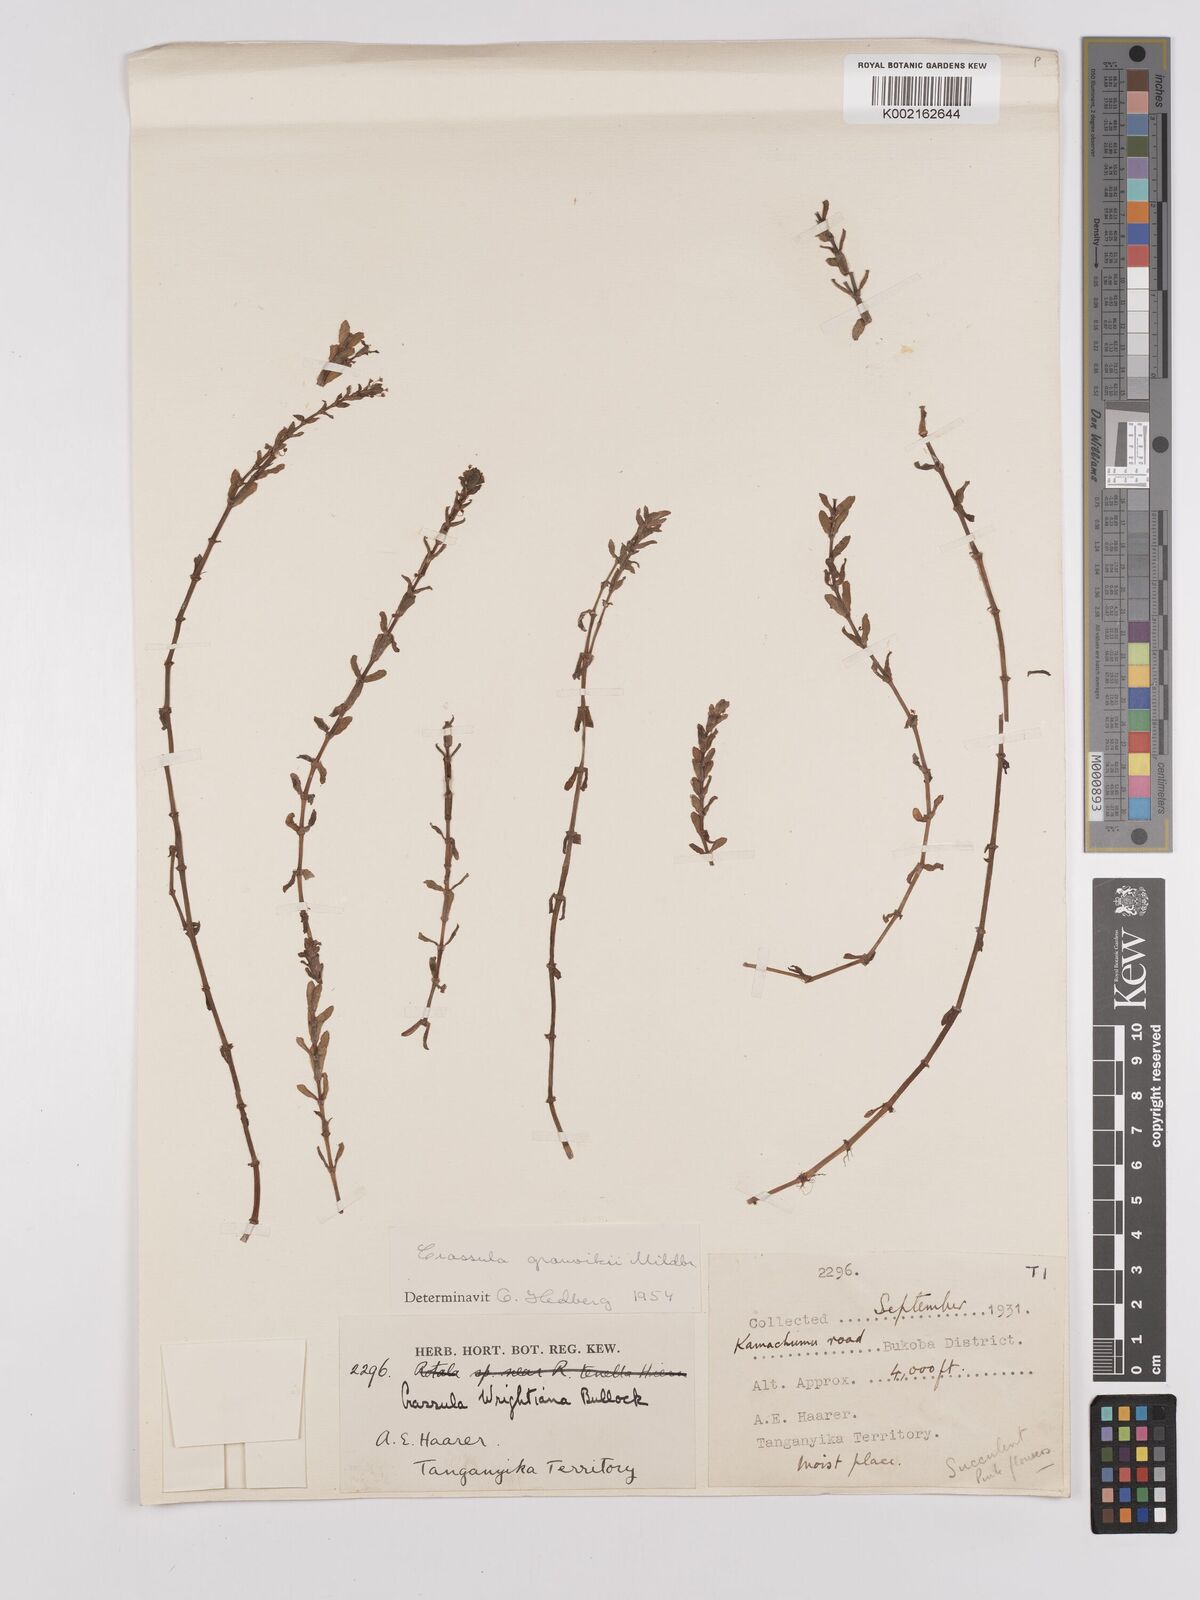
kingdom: Plantae
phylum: Tracheophyta
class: Magnoliopsida
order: Saxifragales
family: Crassulaceae
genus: Crassula
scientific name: Crassula granvikii
